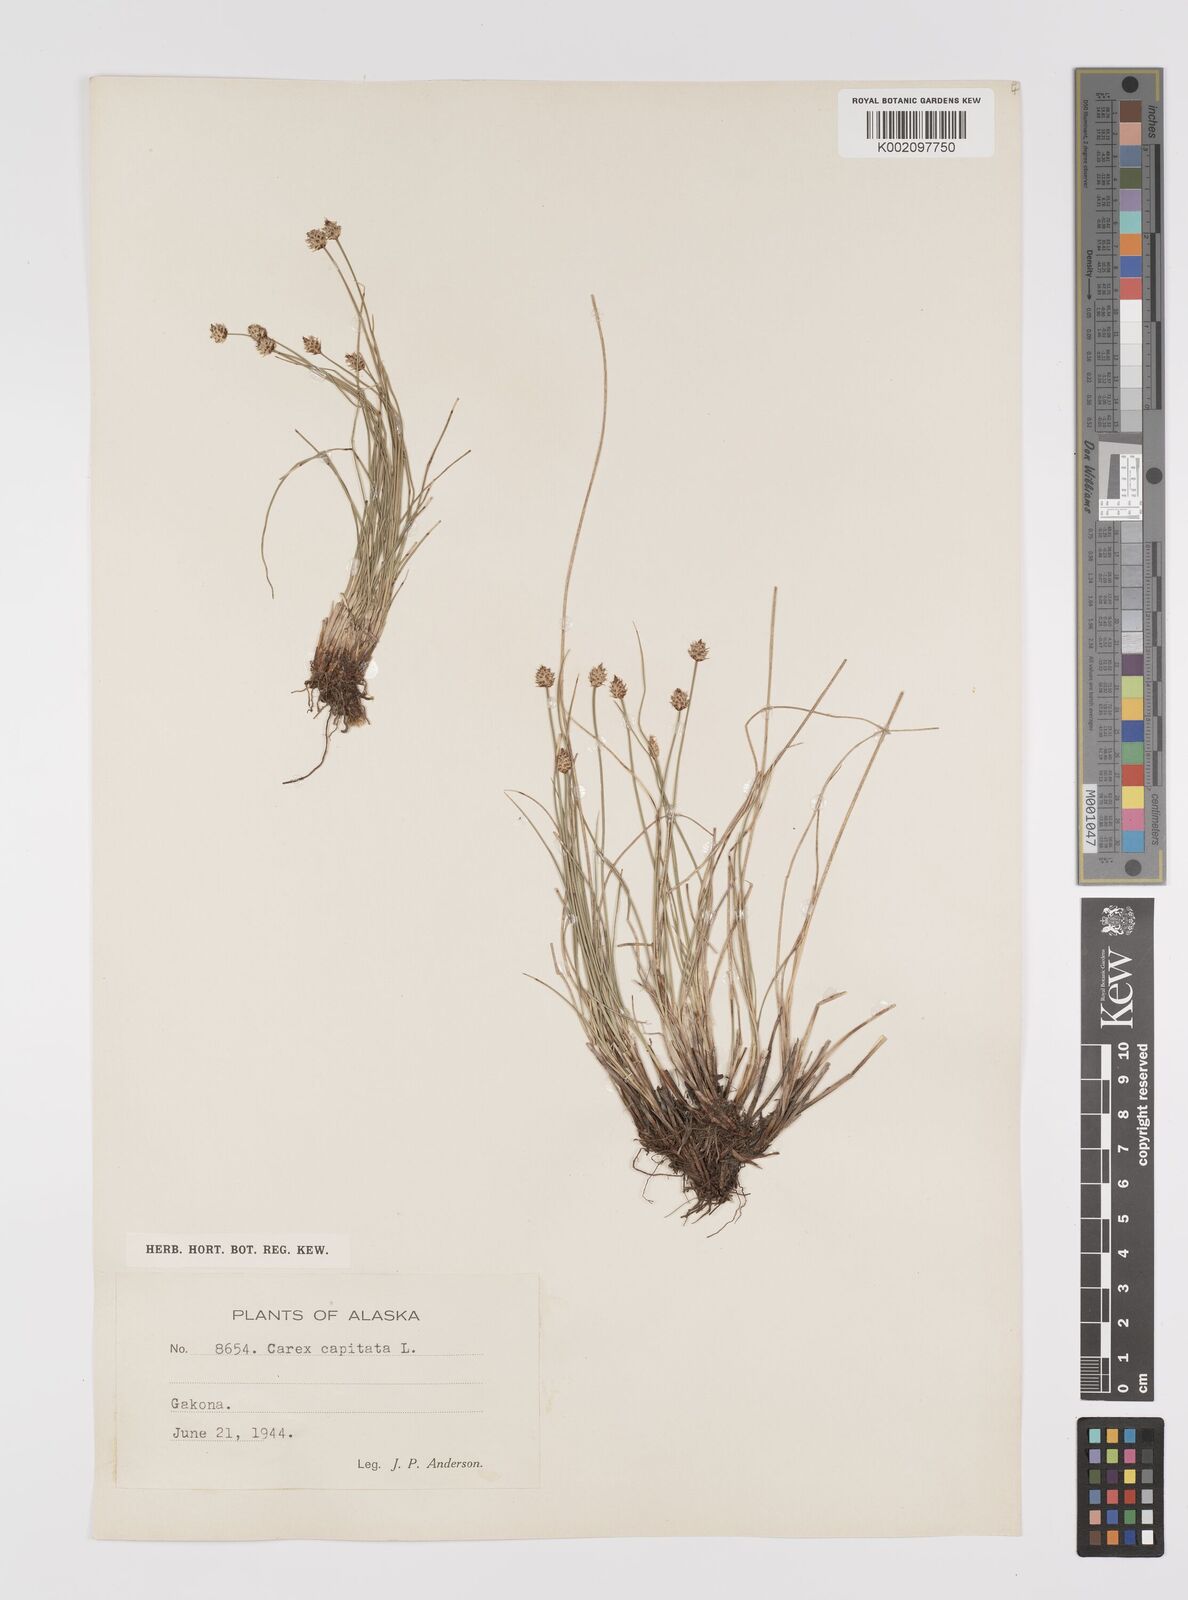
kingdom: Plantae
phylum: Tracheophyta
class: Liliopsida
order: Poales
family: Cyperaceae
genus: Carex
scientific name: Carex capitata
